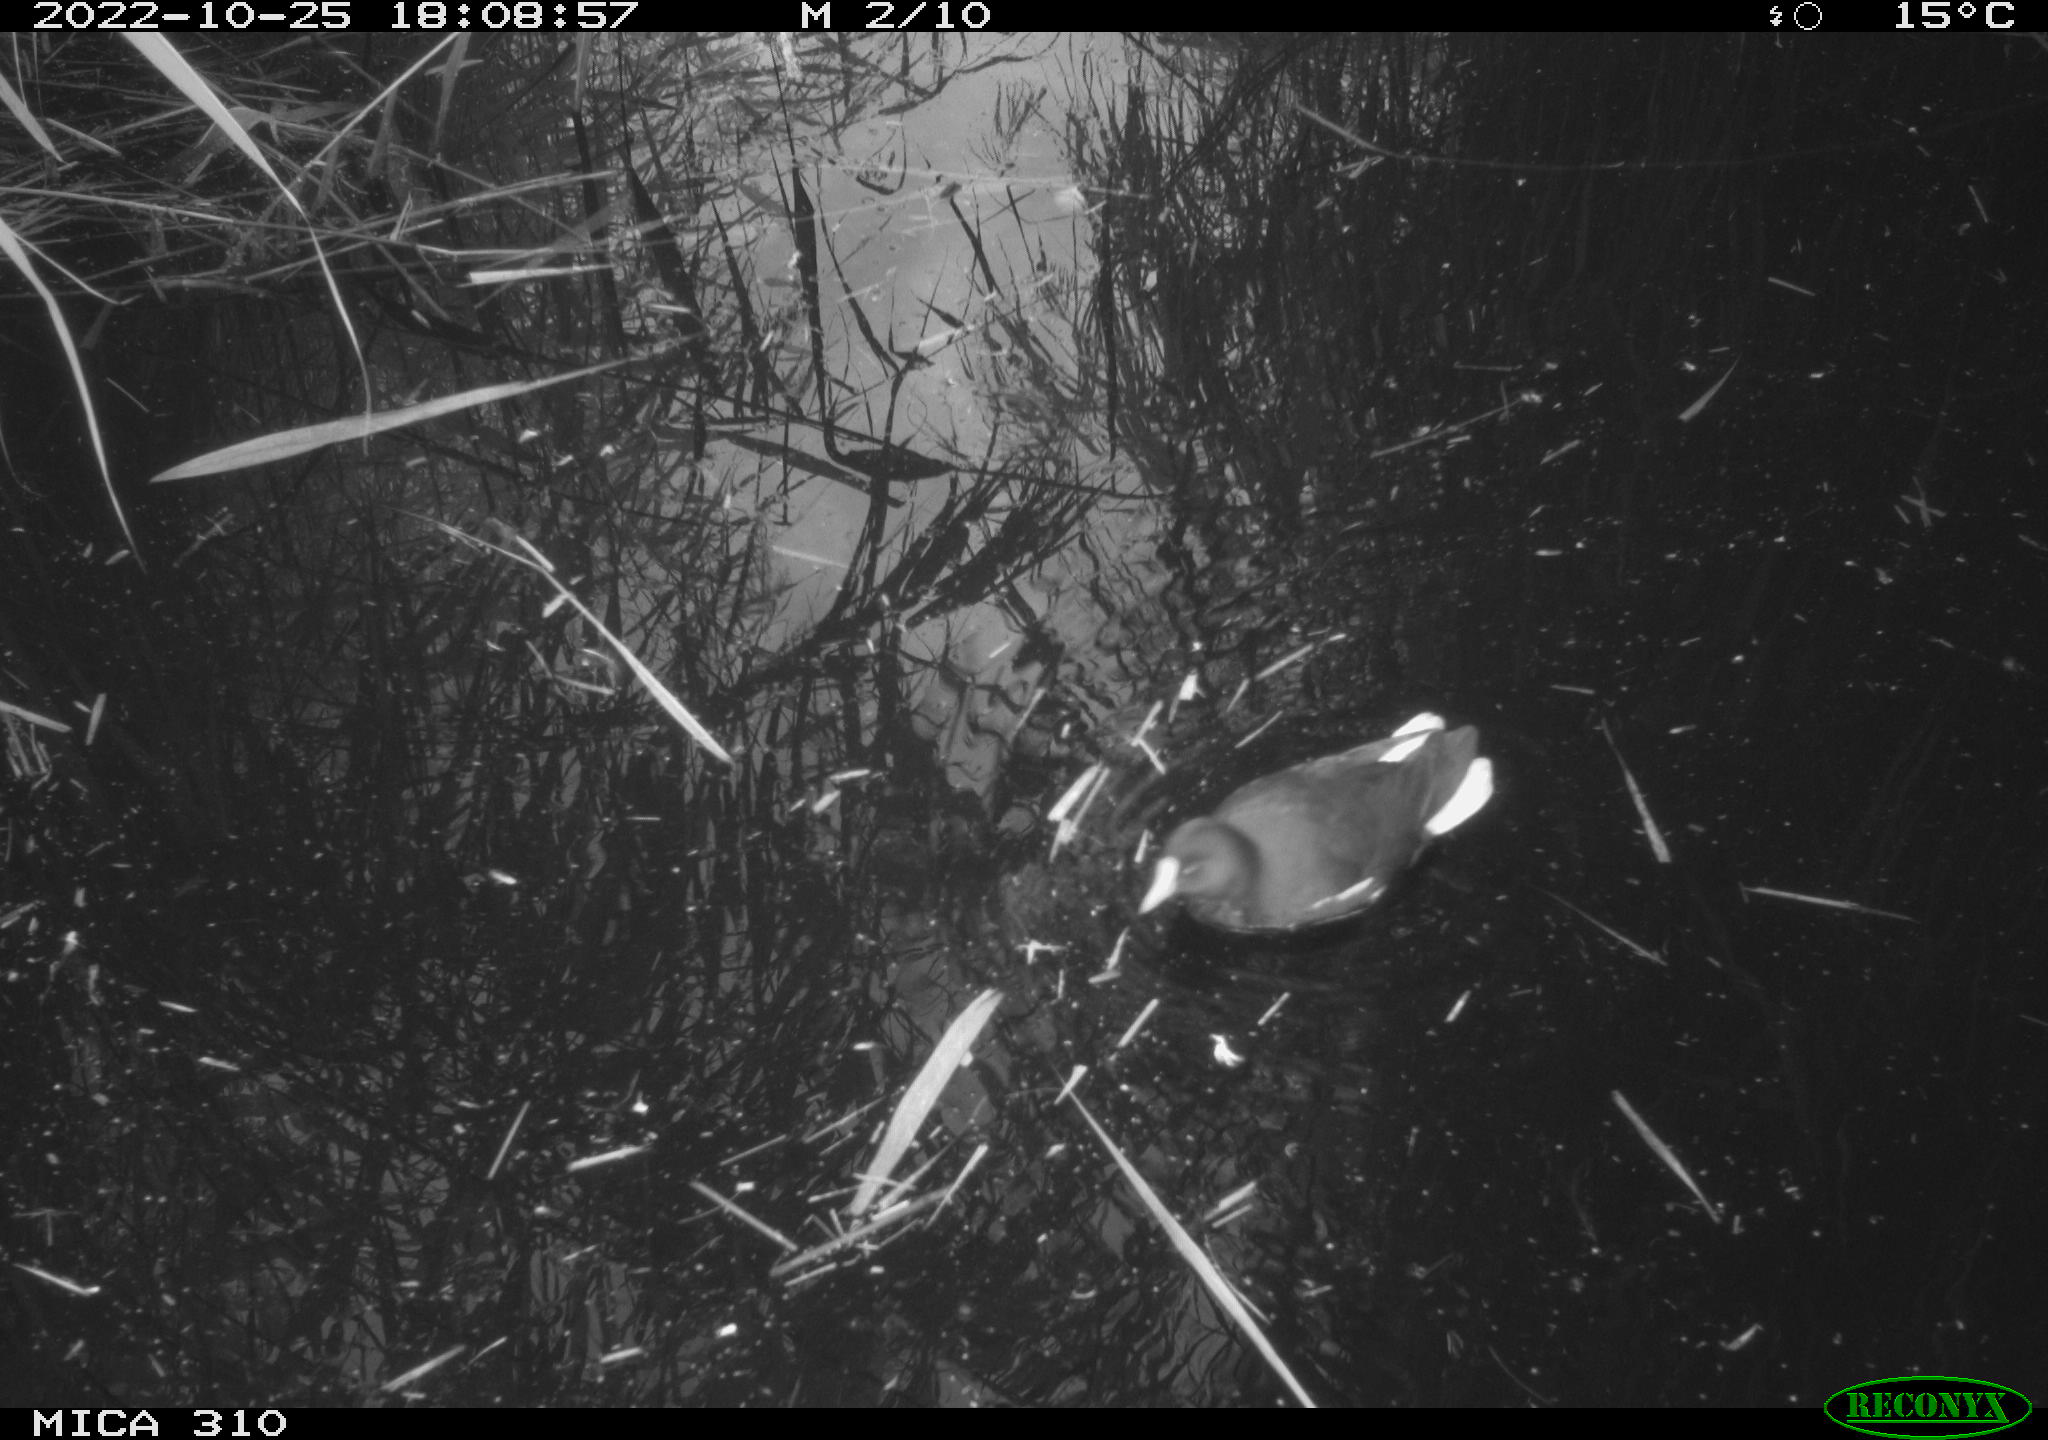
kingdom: Animalia
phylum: Chordata
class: Aves
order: Gruiformes
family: Rallidae
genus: Gallinula
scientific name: Gallinula chloropus
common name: Common moorhen
